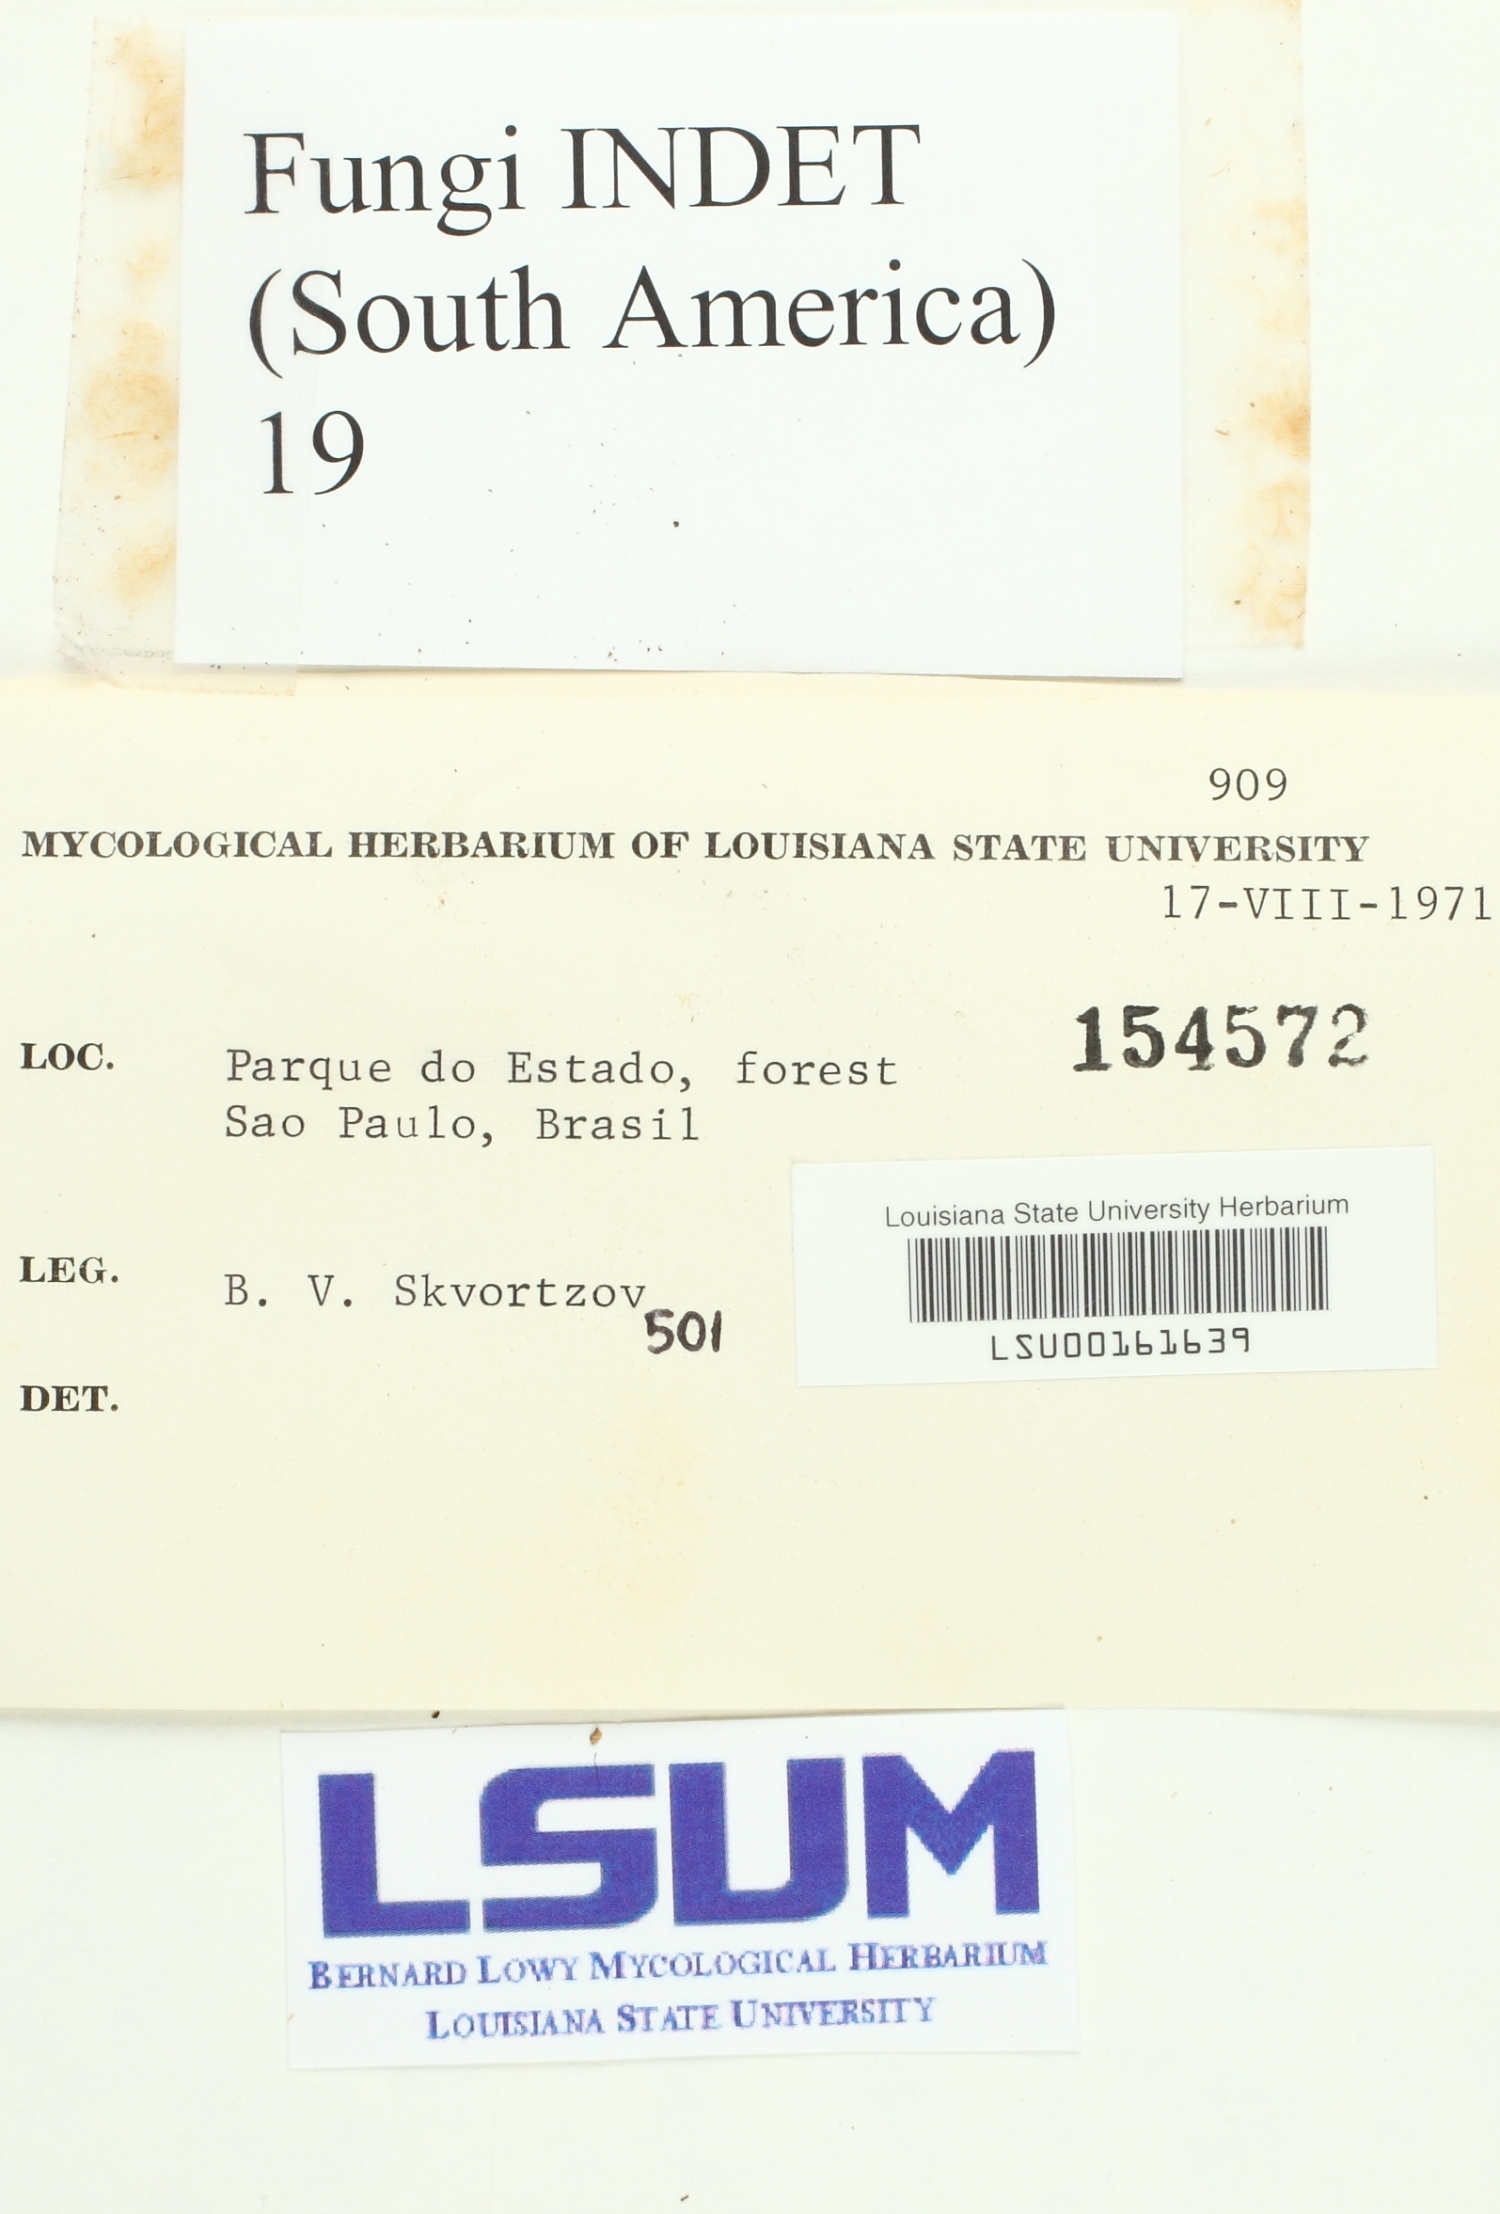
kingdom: Fungi
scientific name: Fungi
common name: Fungi
